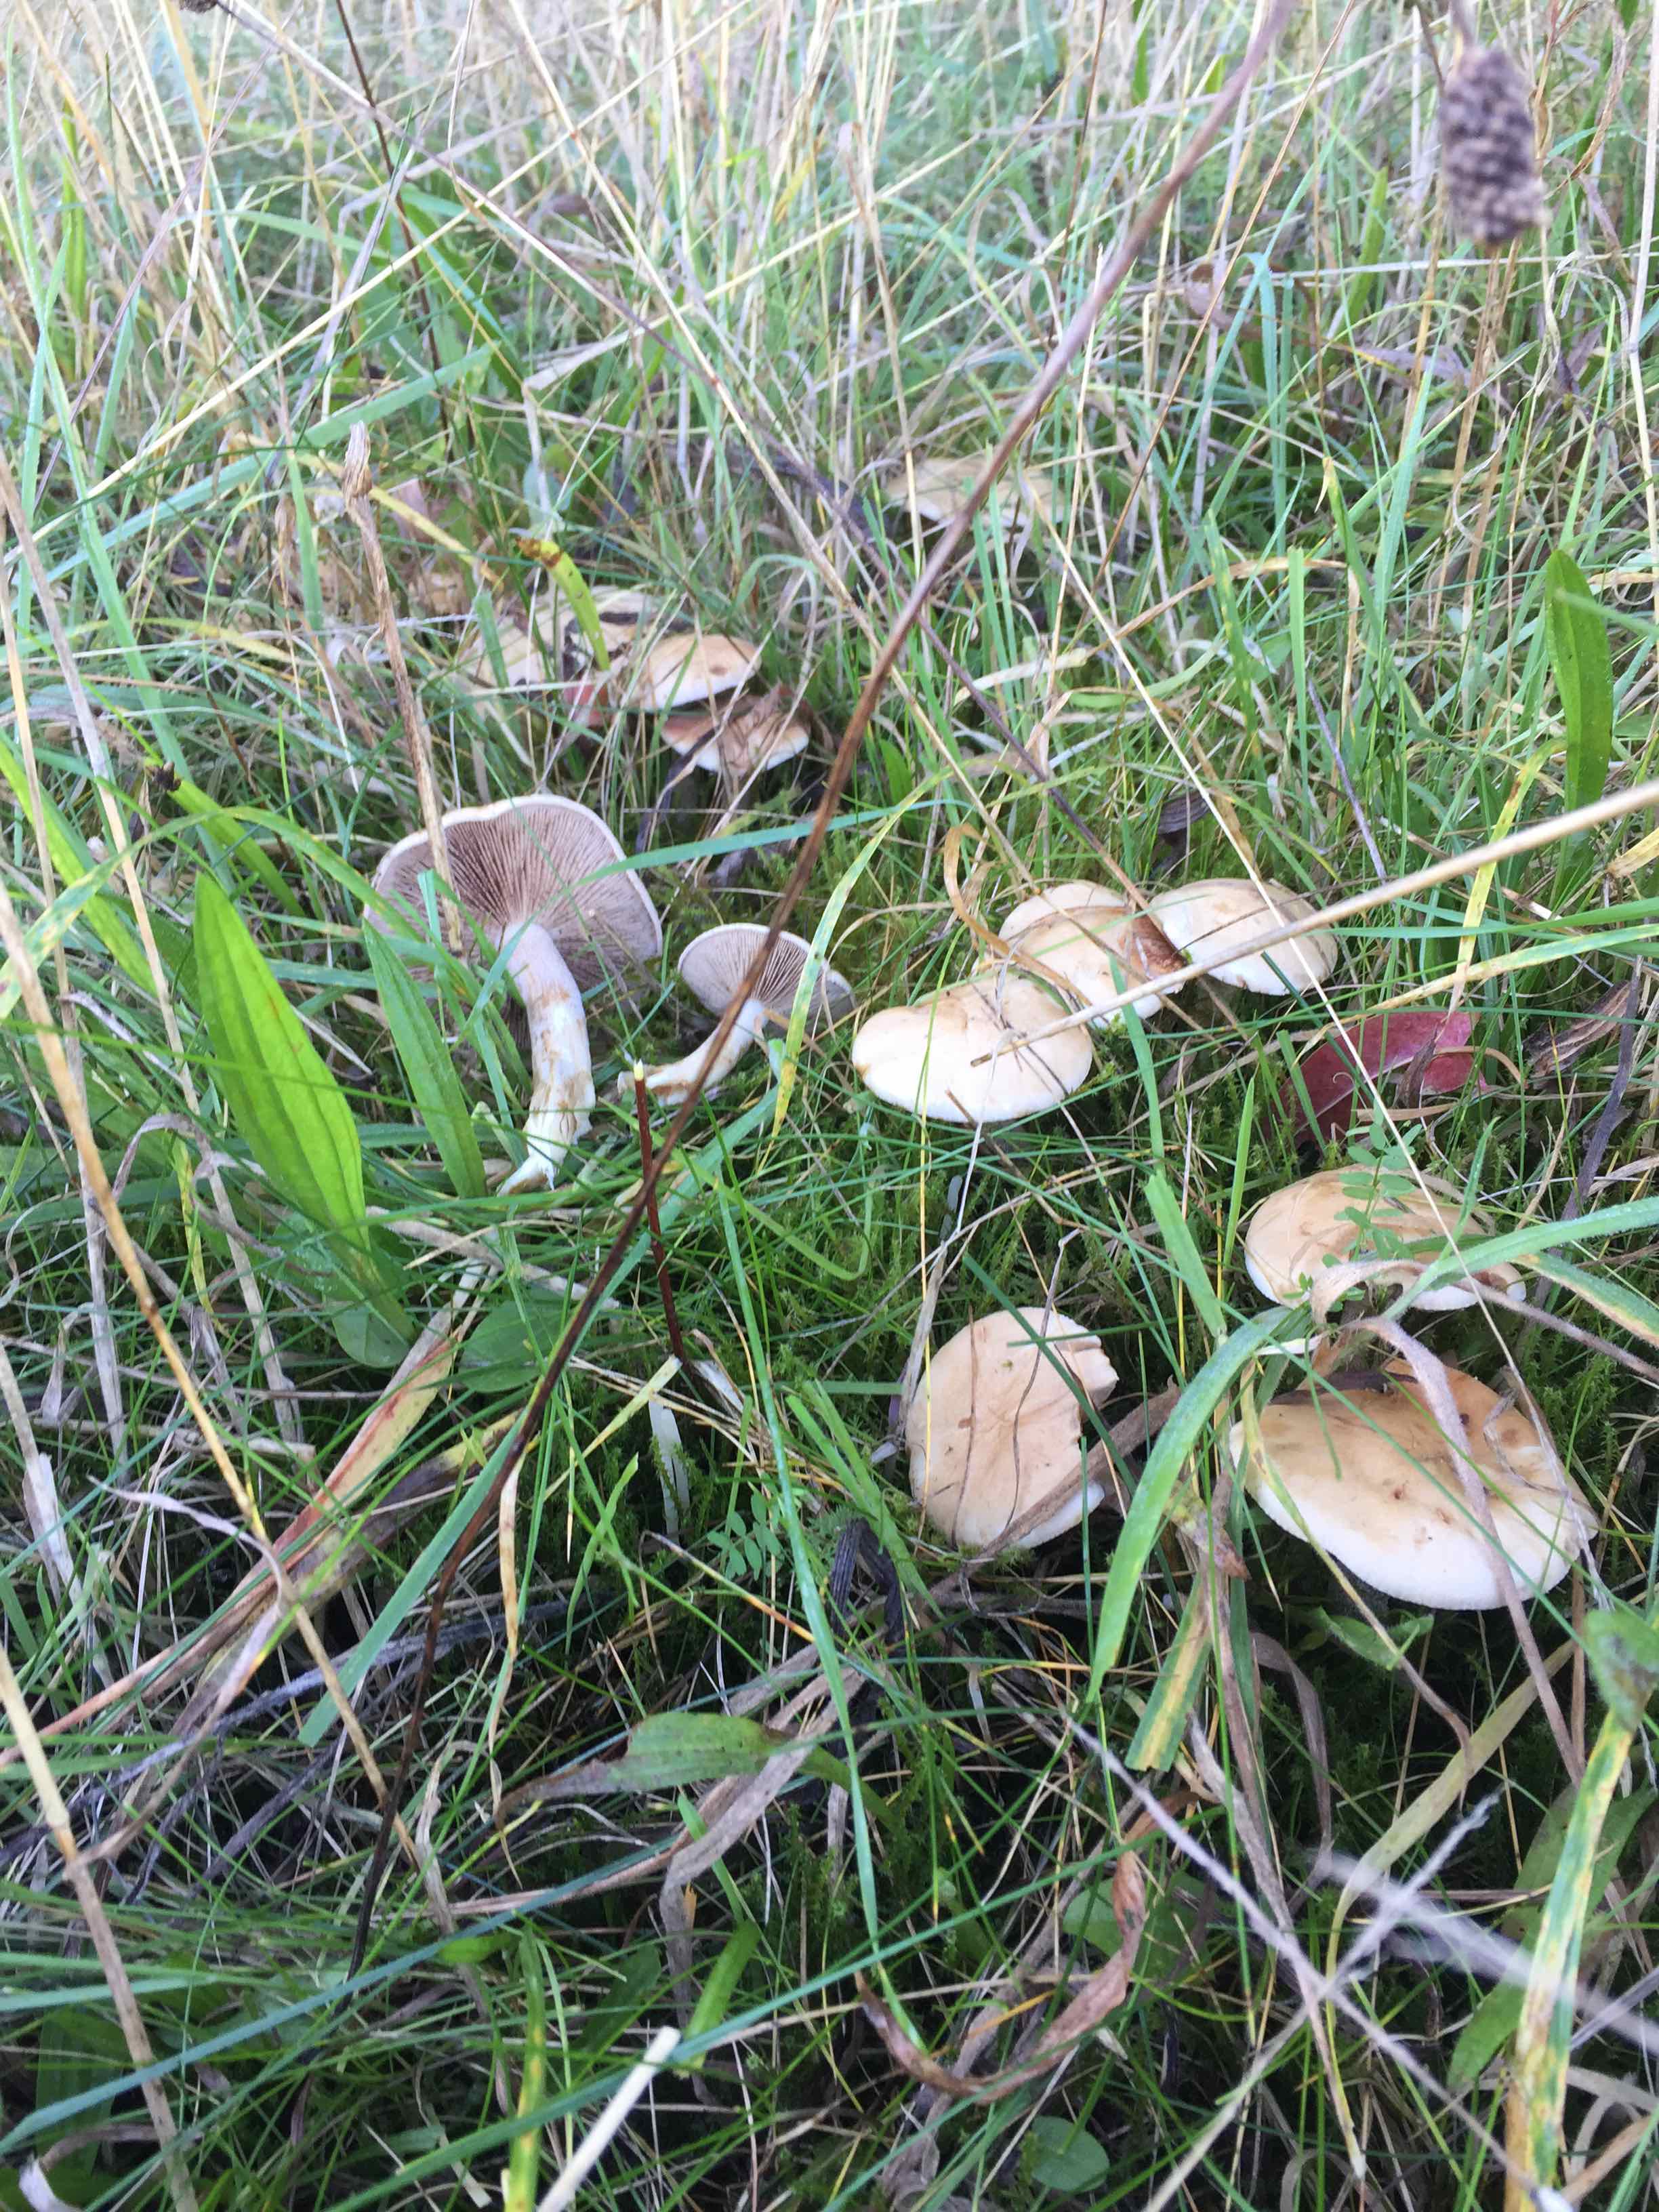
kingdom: Fungi
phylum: Basidiomycota
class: Agaricomycetes
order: Agaricales
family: Hymenogastraceae
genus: Hebeloma
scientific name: Hebeloma
